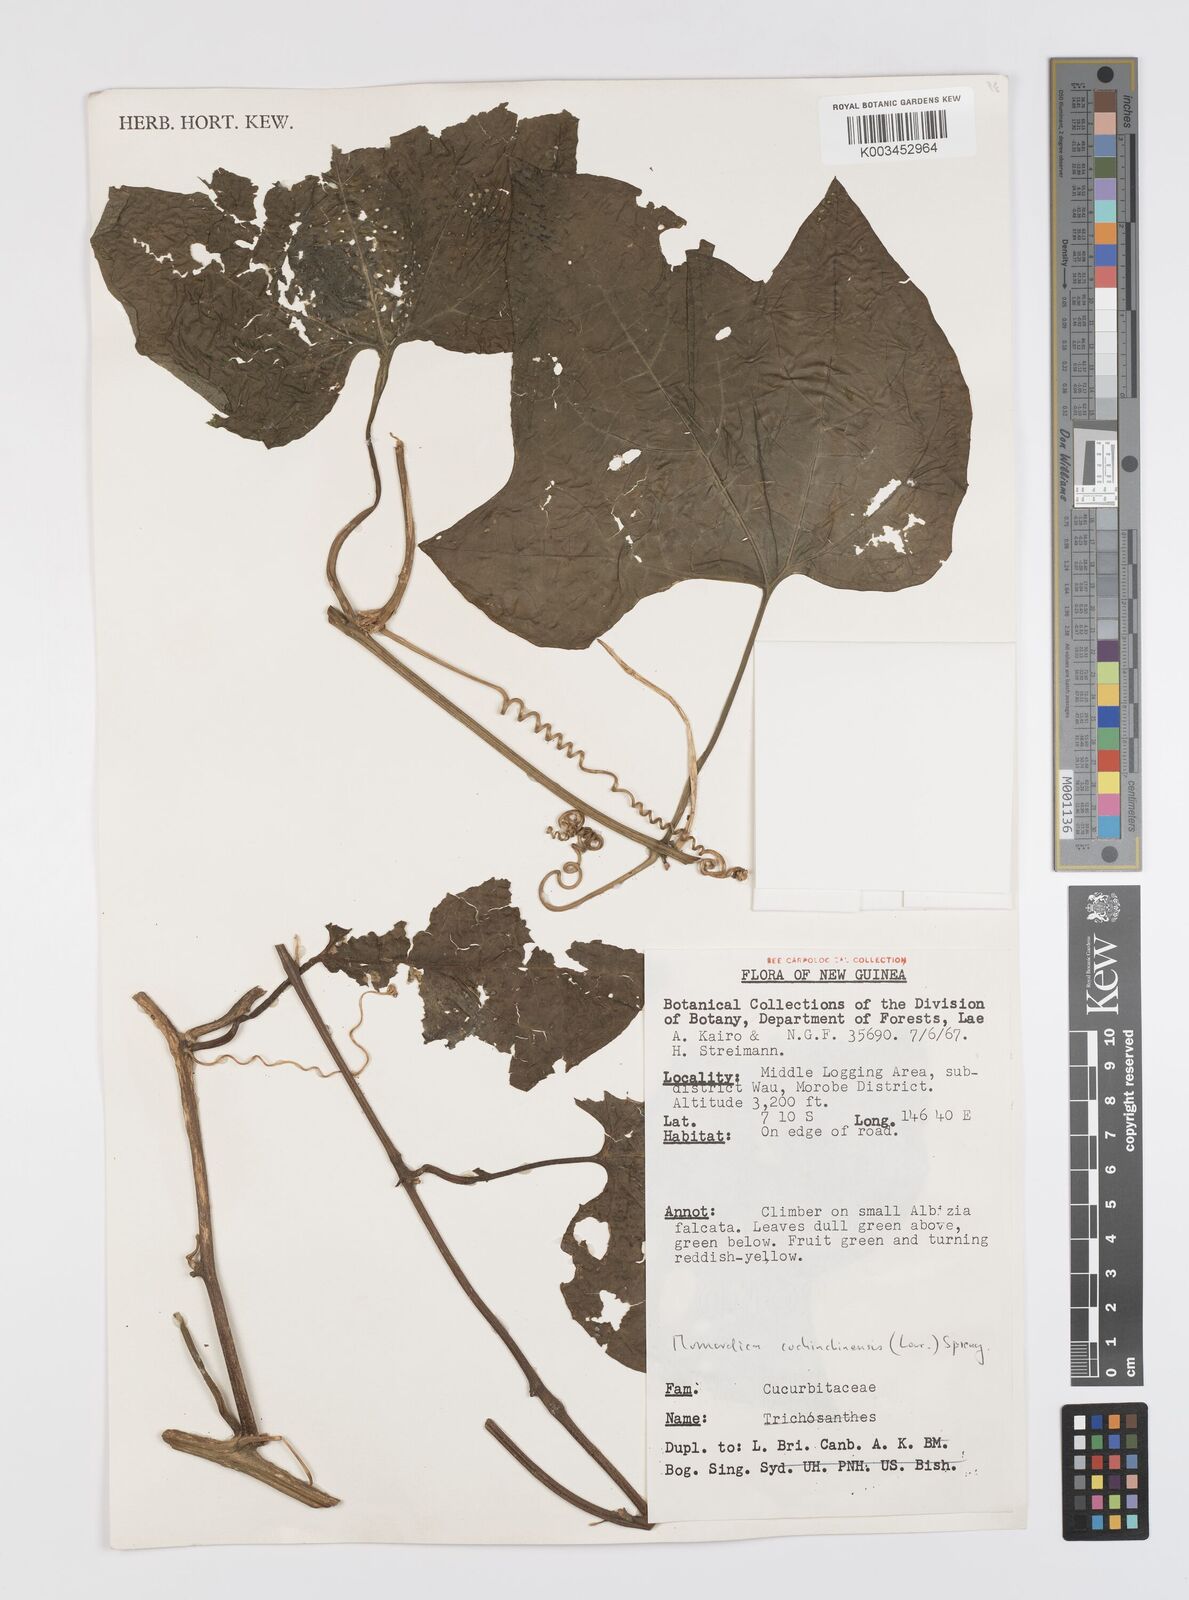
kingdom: Plantae
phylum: Tracheophyta
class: Magnoliopsida
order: Cucurbitales
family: Cucurbitaceae
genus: Momordica
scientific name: Momordica cochinchinensis
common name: Chinese bitter-cucumber
